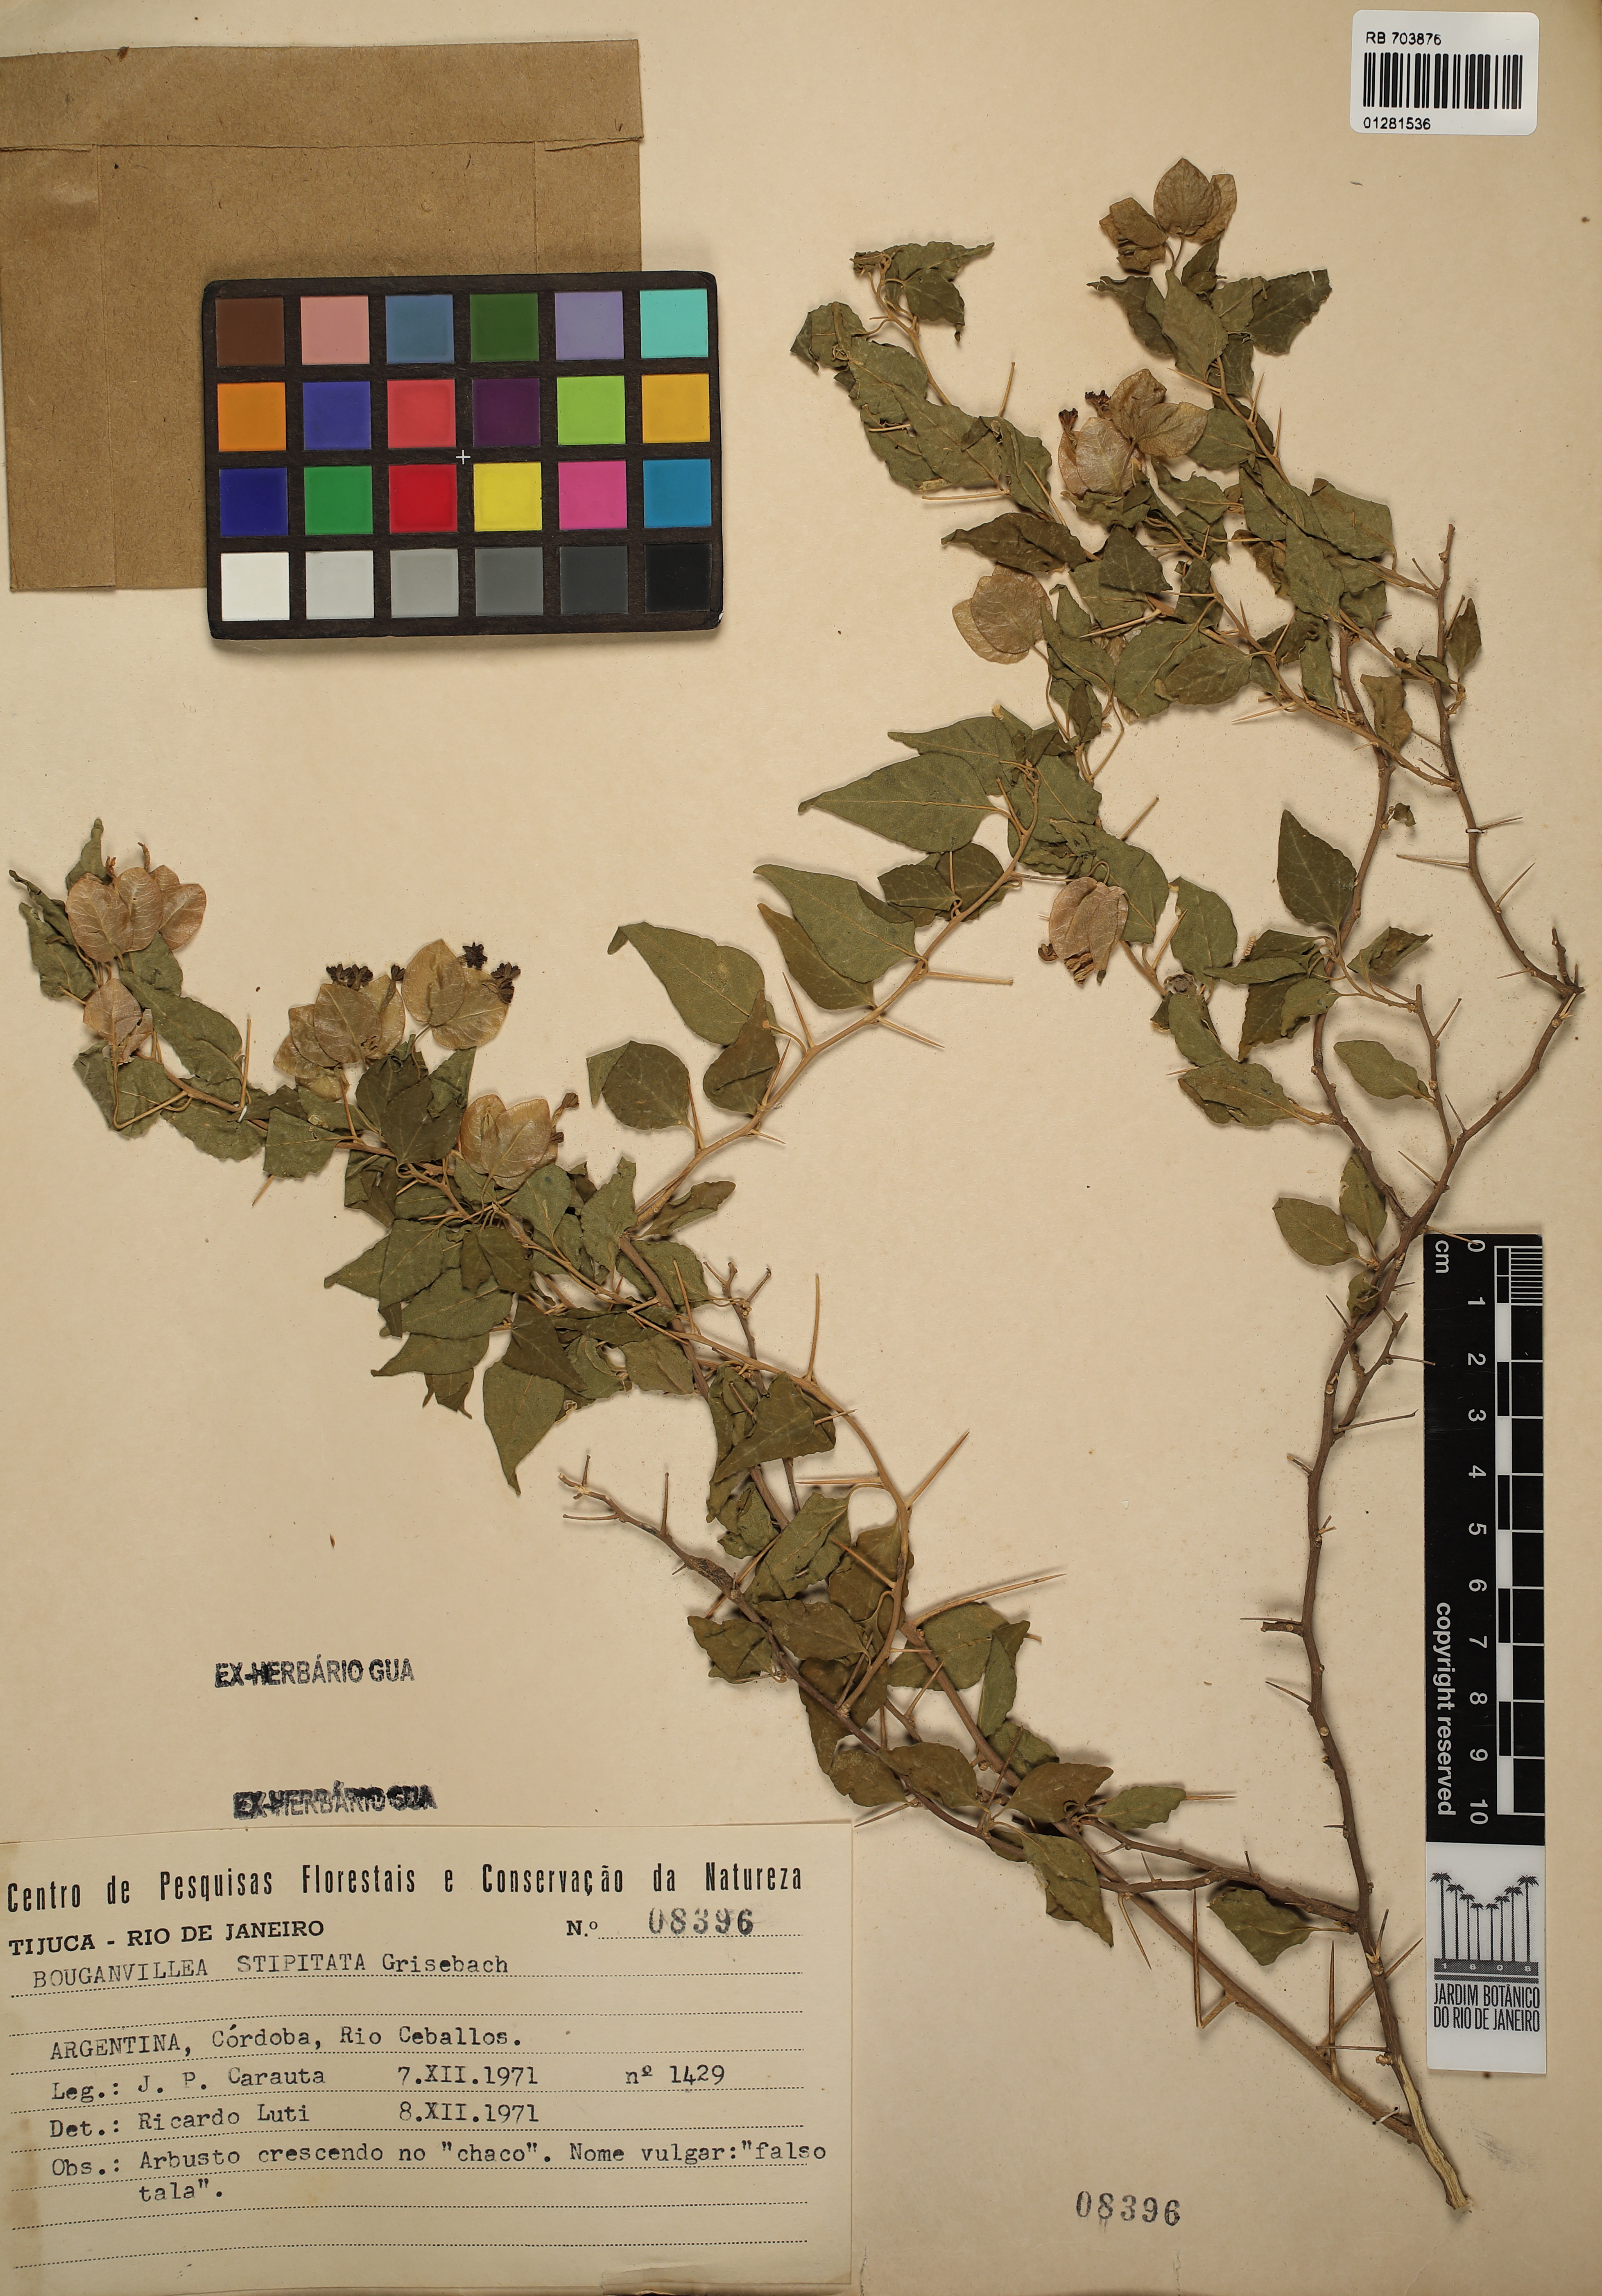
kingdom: Plantae
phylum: Tracheophyta
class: Magnoliopsida
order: Caryophyllales
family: Nyctaginaceae
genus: Bougainvillea
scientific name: Bougainvillea stipitata
